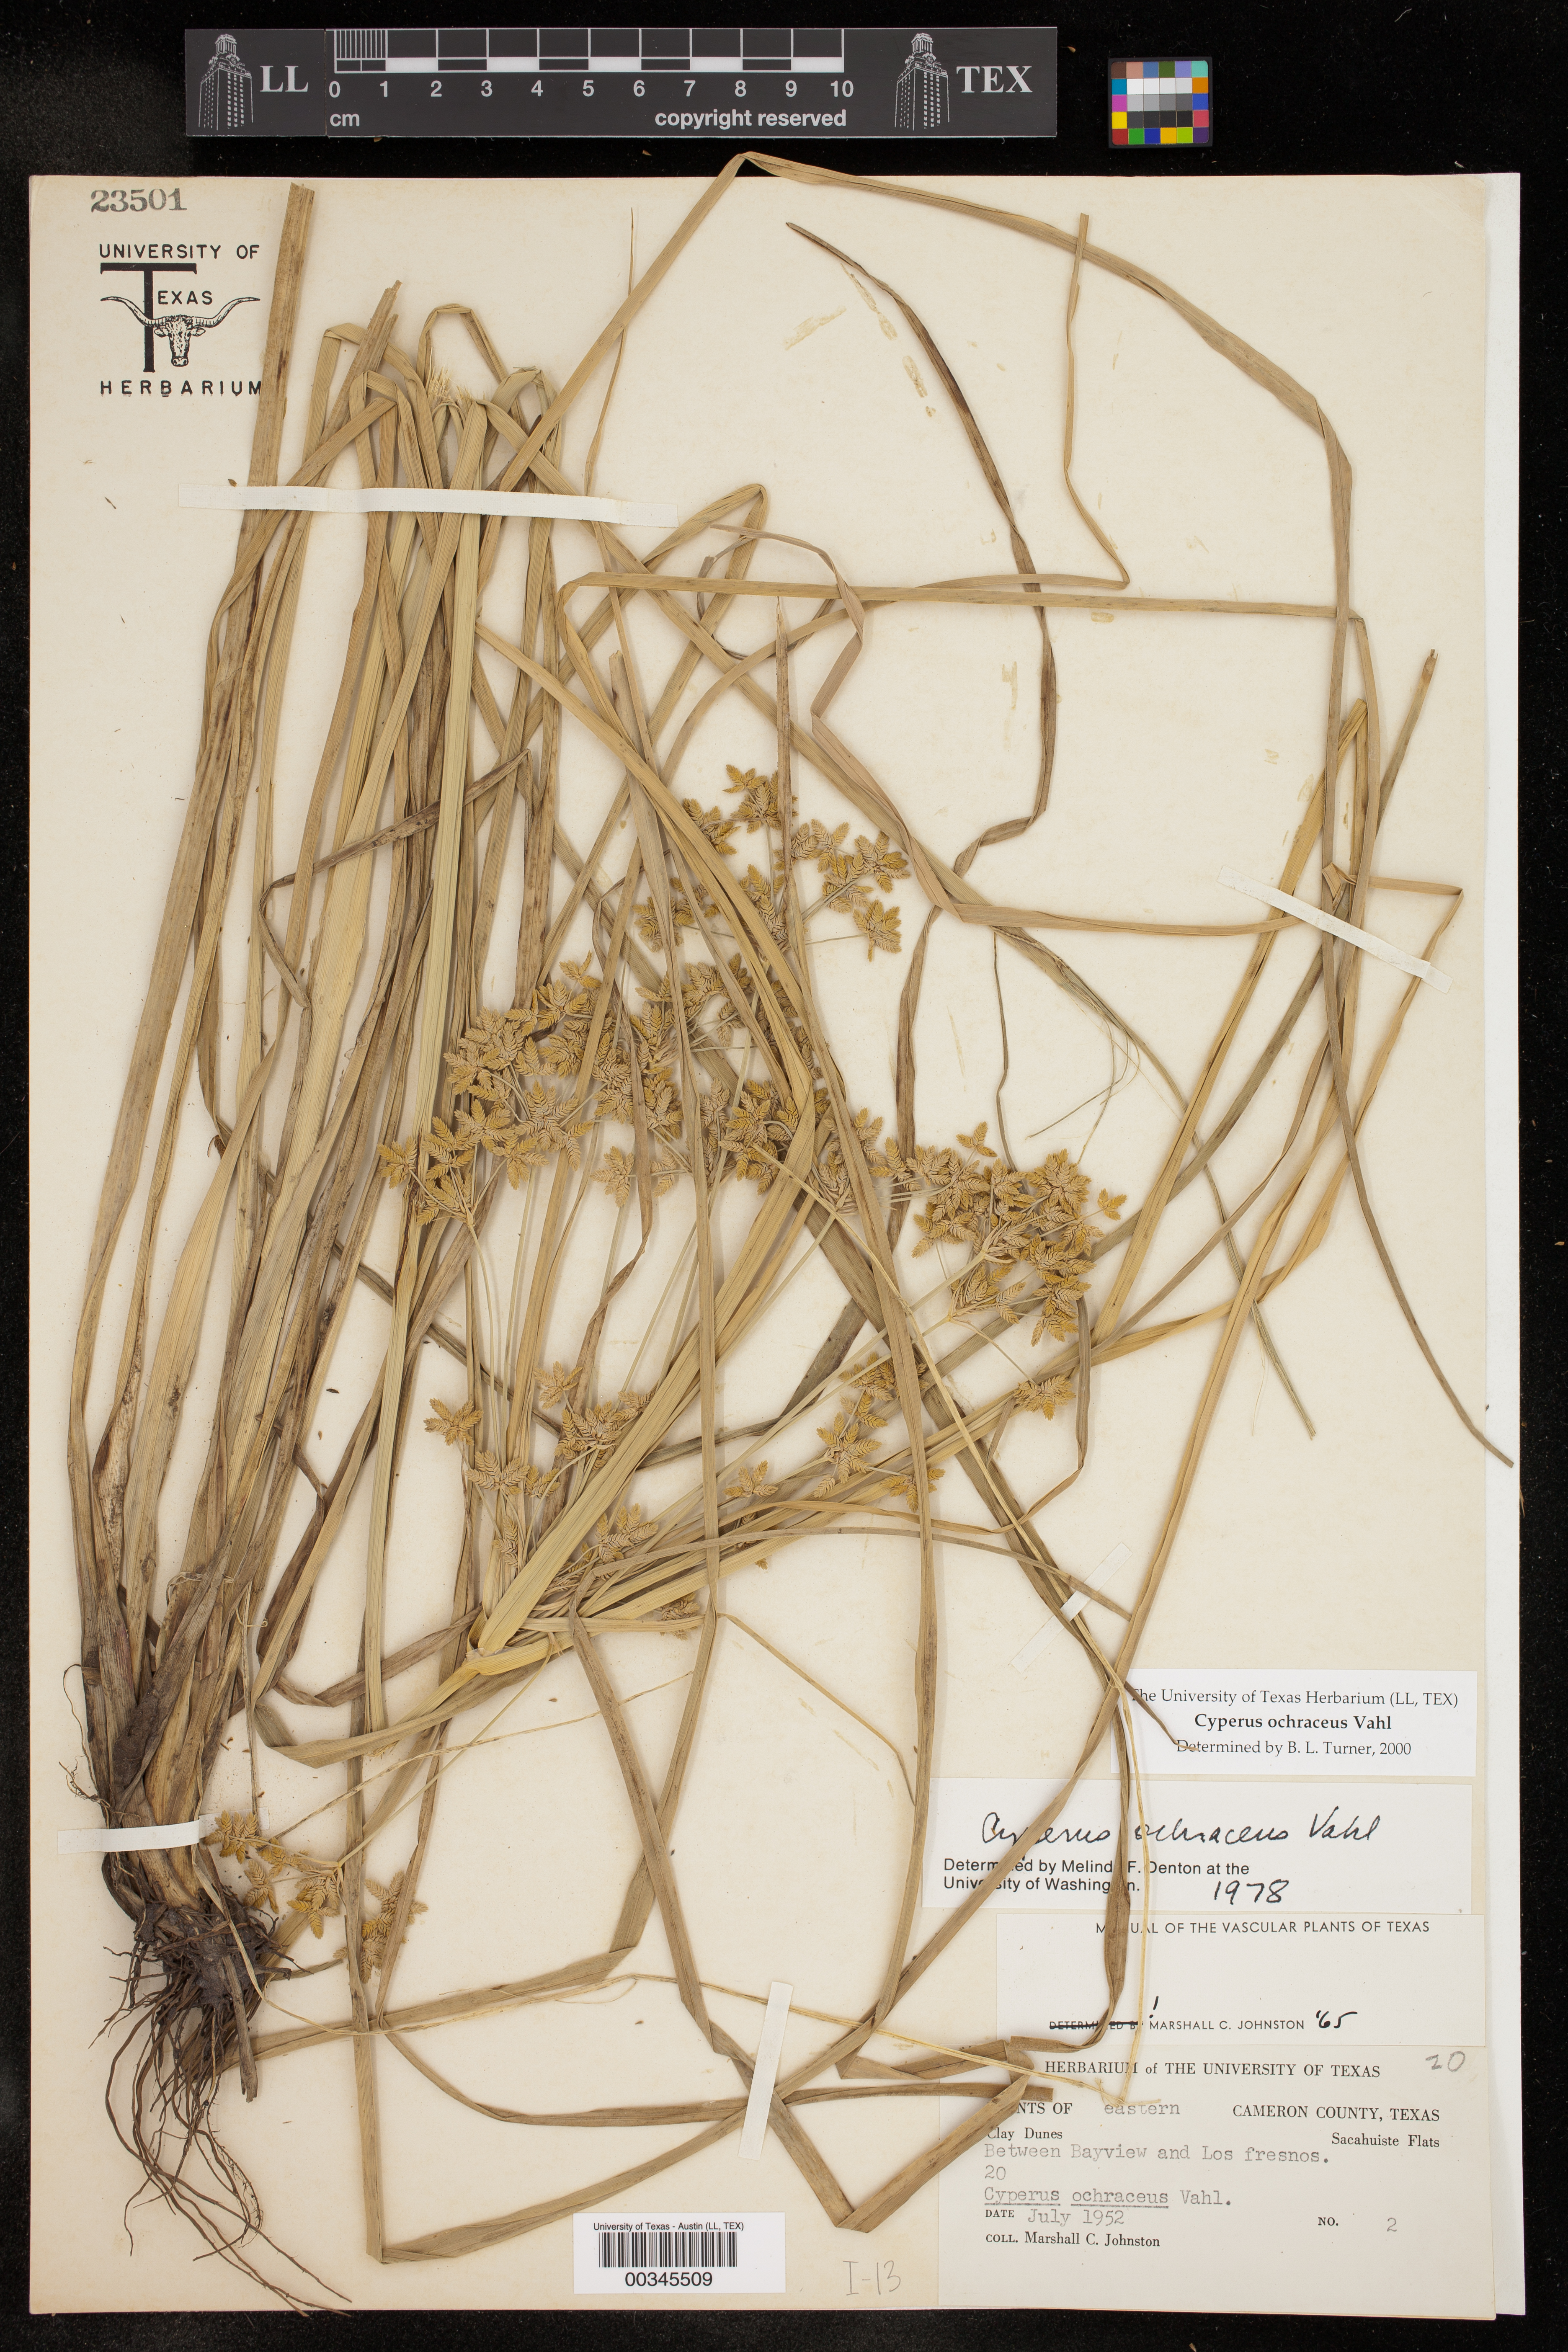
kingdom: Plantae
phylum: Tracheophyta
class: Liliopsida
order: Poales
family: Cyperaceae
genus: Cyperus
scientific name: Cyperus ochraceus
